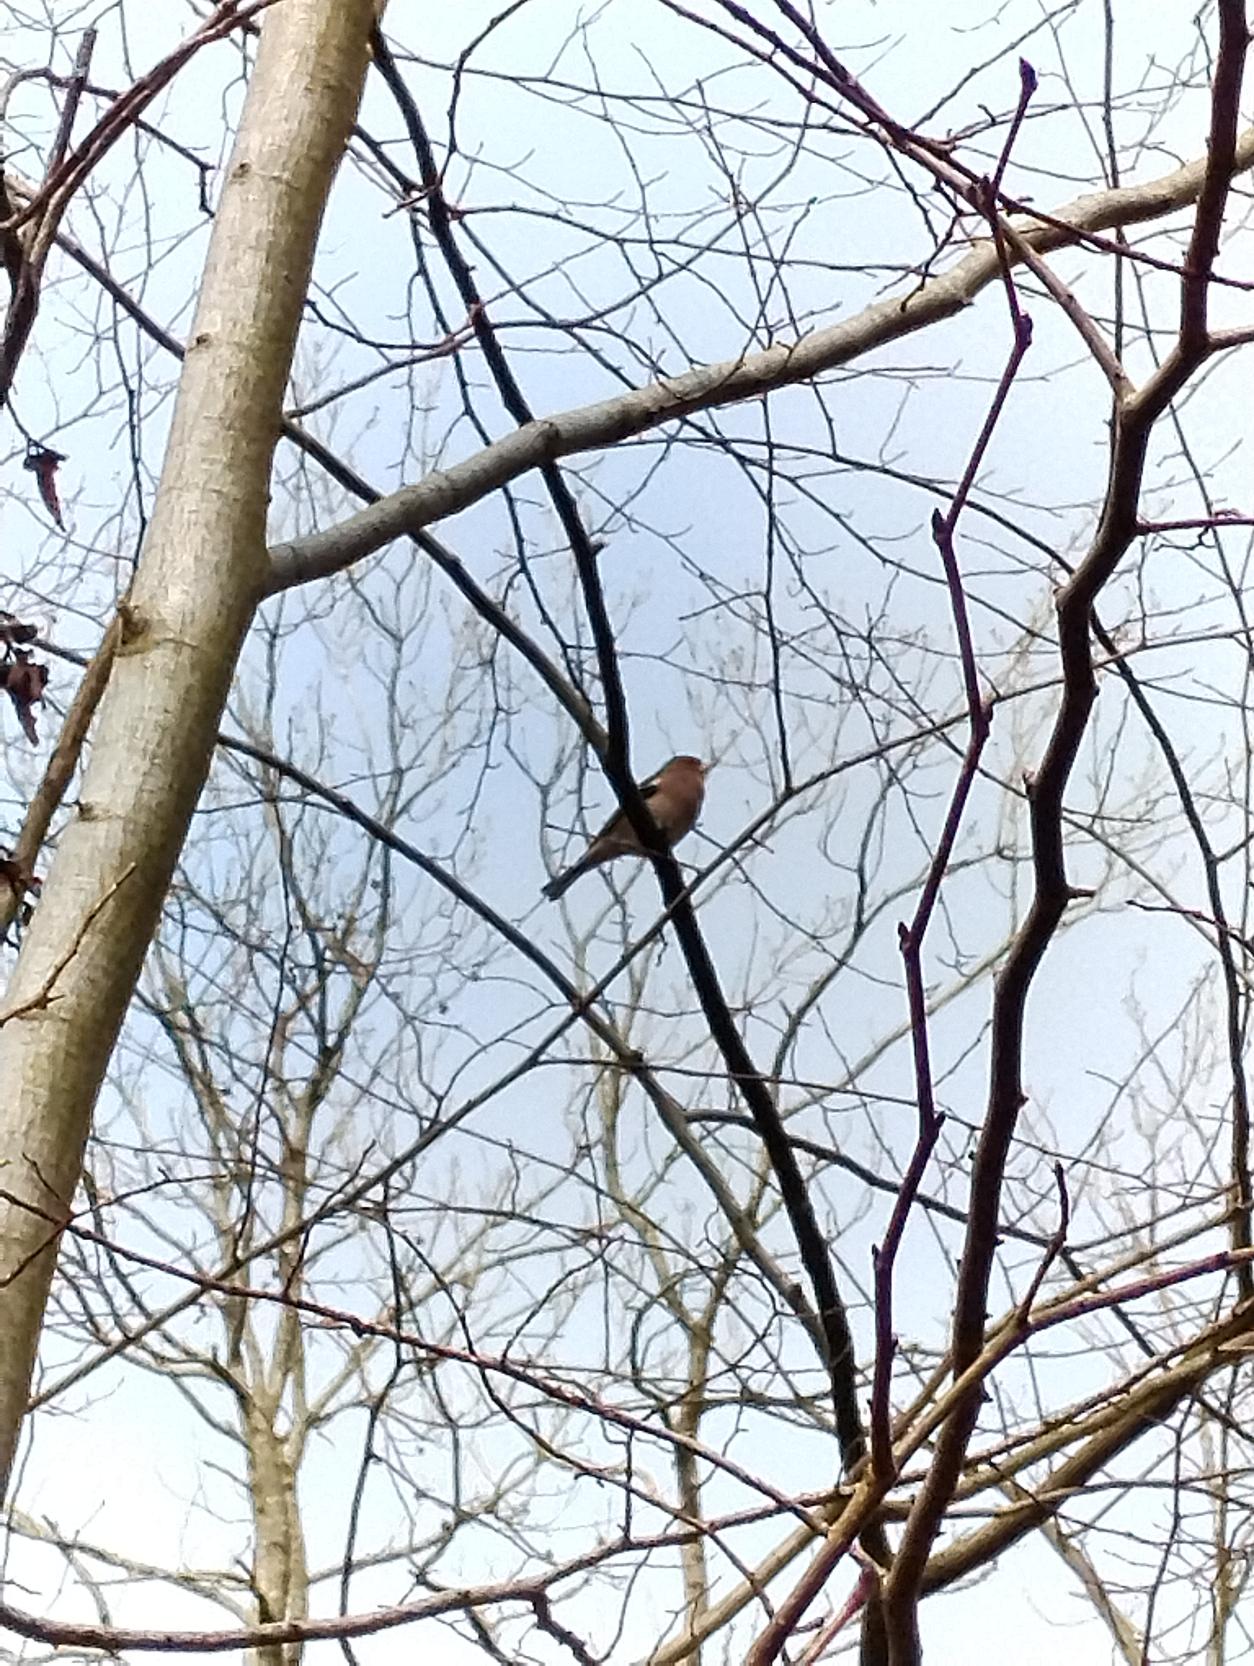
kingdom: Animalia
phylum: Chordata
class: Aves
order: Passeriformes
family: Fringillidae
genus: Fringilla
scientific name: Fringilla coelebs
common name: Bogfinke
